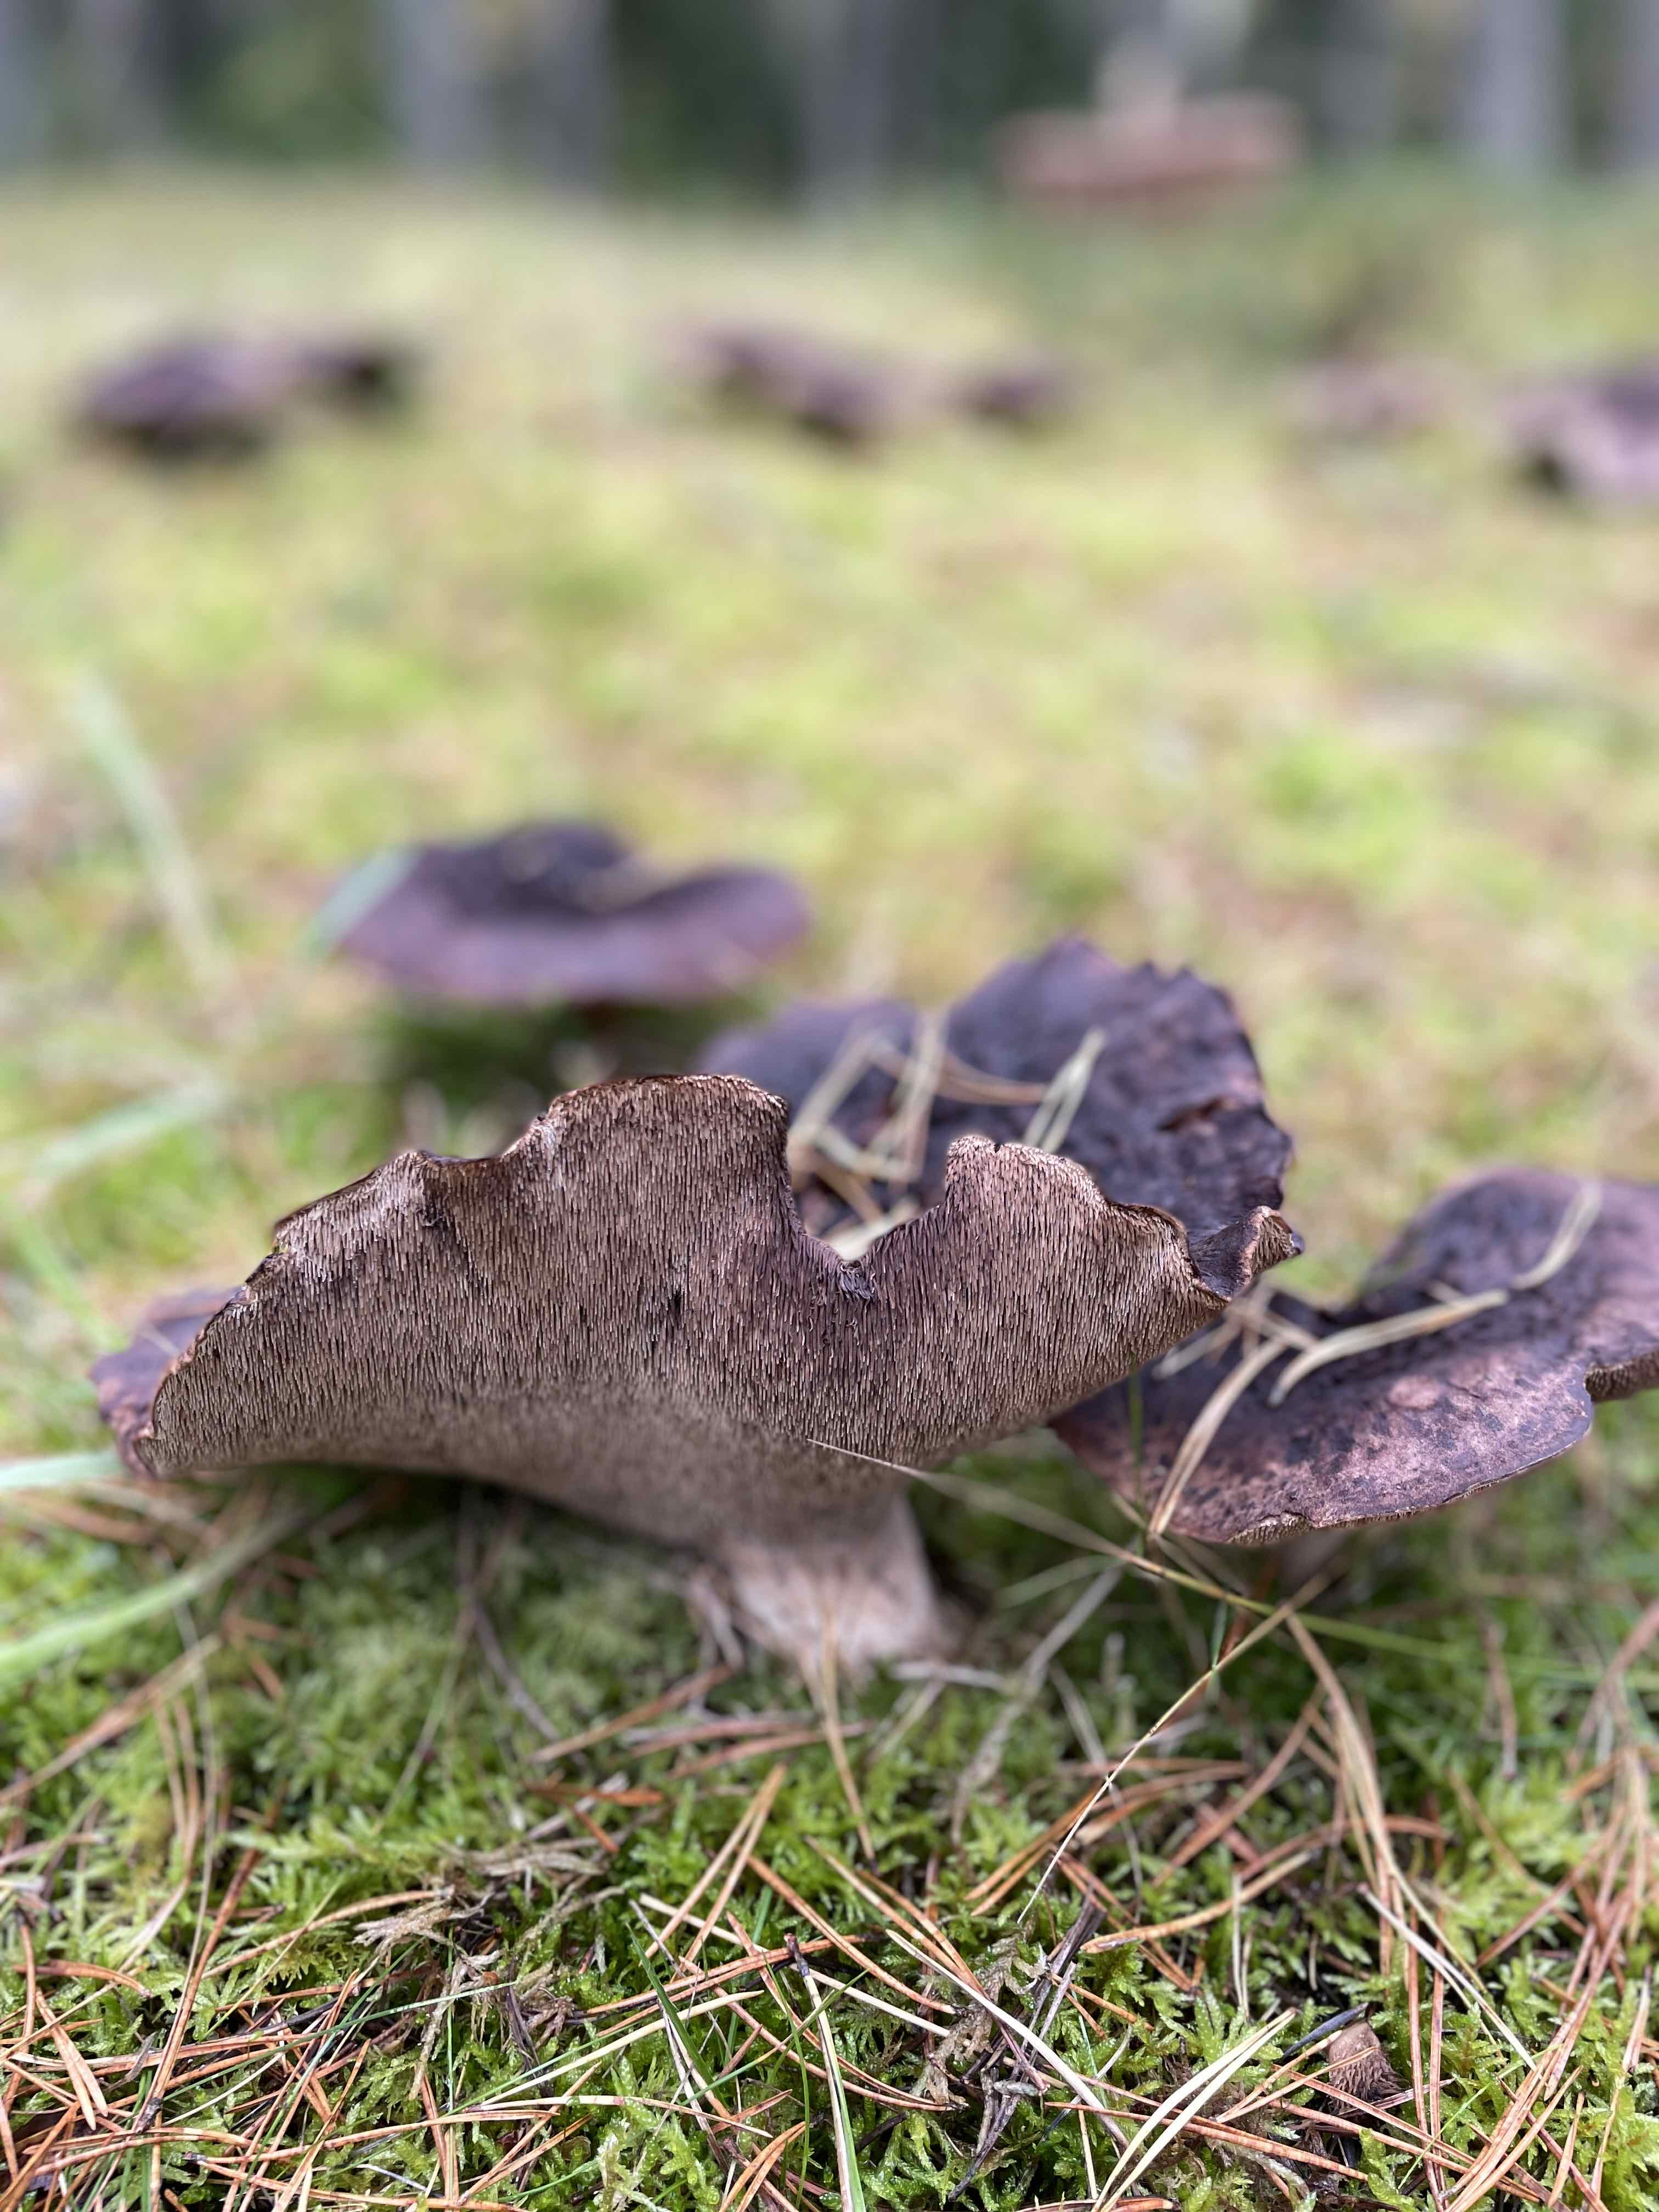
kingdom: Fungi
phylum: Basidiomycota
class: Agaricomycetes
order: Thelephorales
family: Bankeraceae
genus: Sarcodon
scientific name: Sarcodon squamosus
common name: småskællet kødpigsvamp
